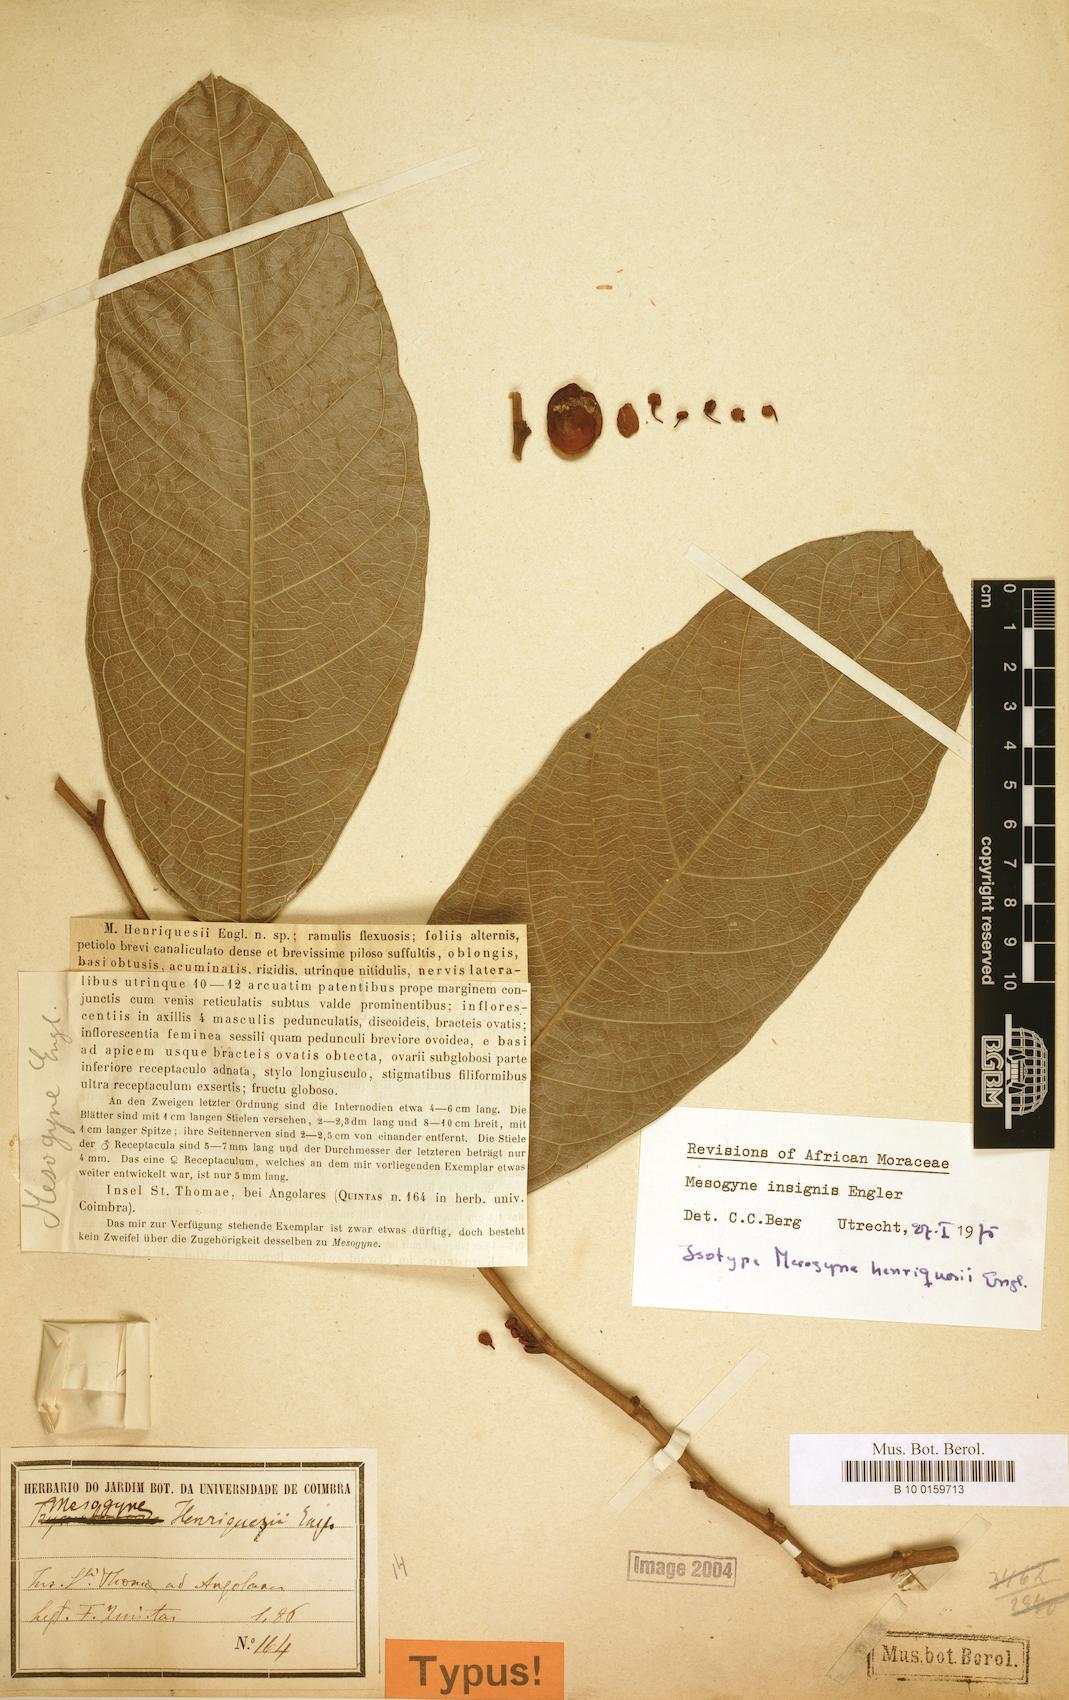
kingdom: Plantae
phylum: Tracheophyta
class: Magnoliopsida
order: Rosales
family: Moraceae
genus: Mesogyne
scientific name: Mesogyne insignis
